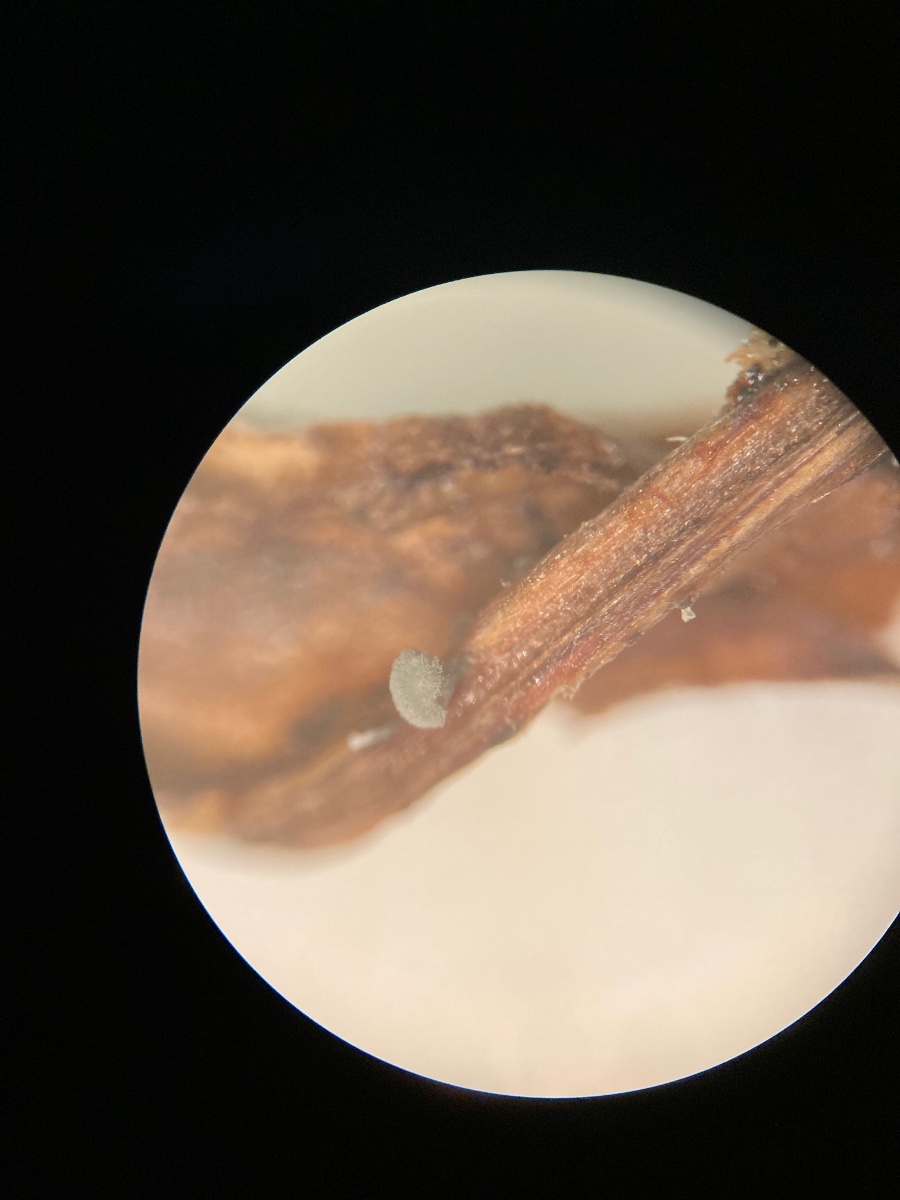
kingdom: Fungi
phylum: Ascomycota
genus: Coremiella
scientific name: Coremiella cubispora
